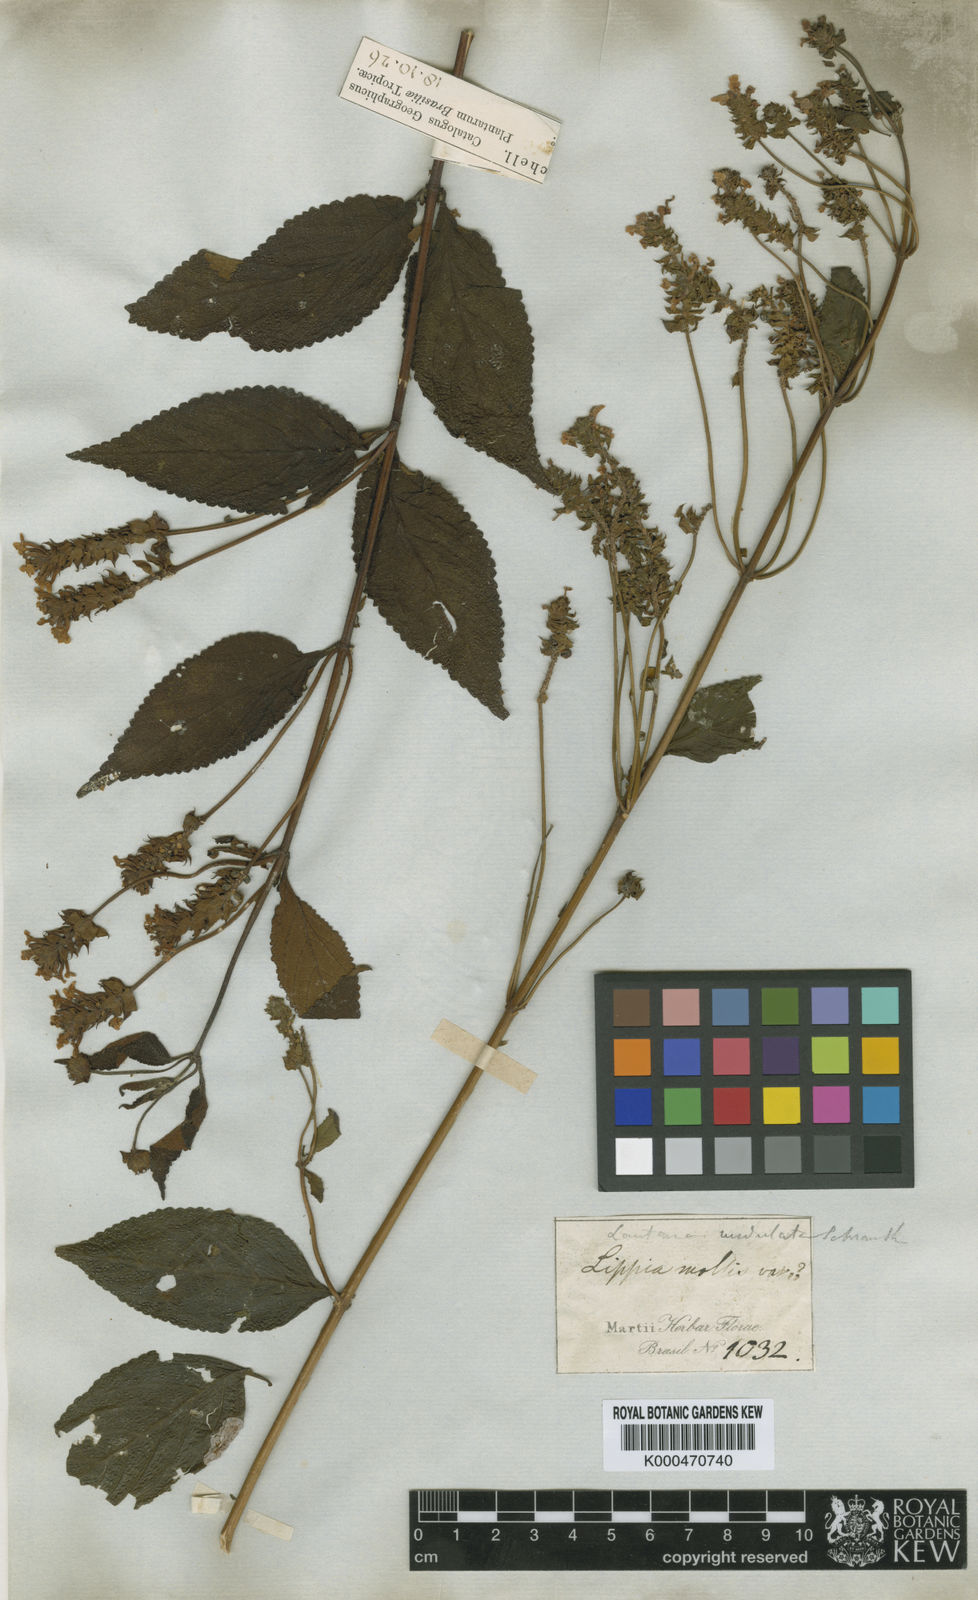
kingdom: Plantae
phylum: Tracheophyta
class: Magnoliopsida
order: Lamiales
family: Verbenaceae
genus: Lantana
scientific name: Lantana
